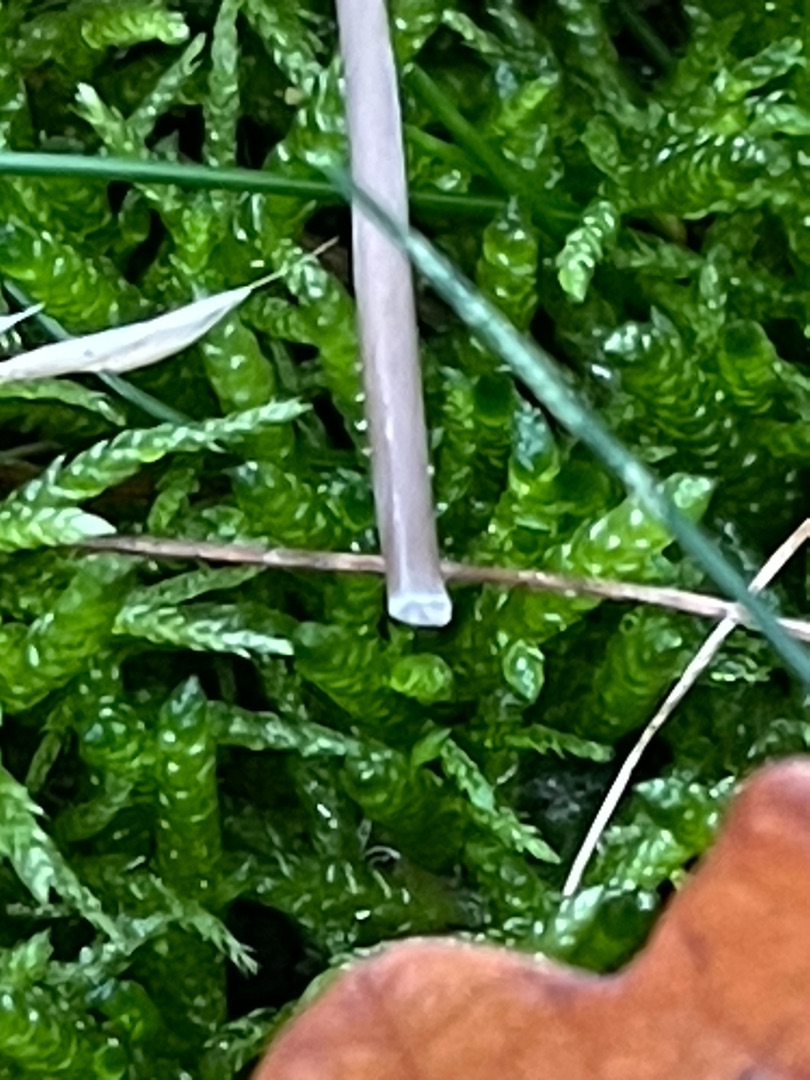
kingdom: Fungi
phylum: Basidiomycota
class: Agaricomycetes
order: Agaricales
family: Mycenaceae
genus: Mycena
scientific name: Mycena galopus
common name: Hvidmælket huesvamp
